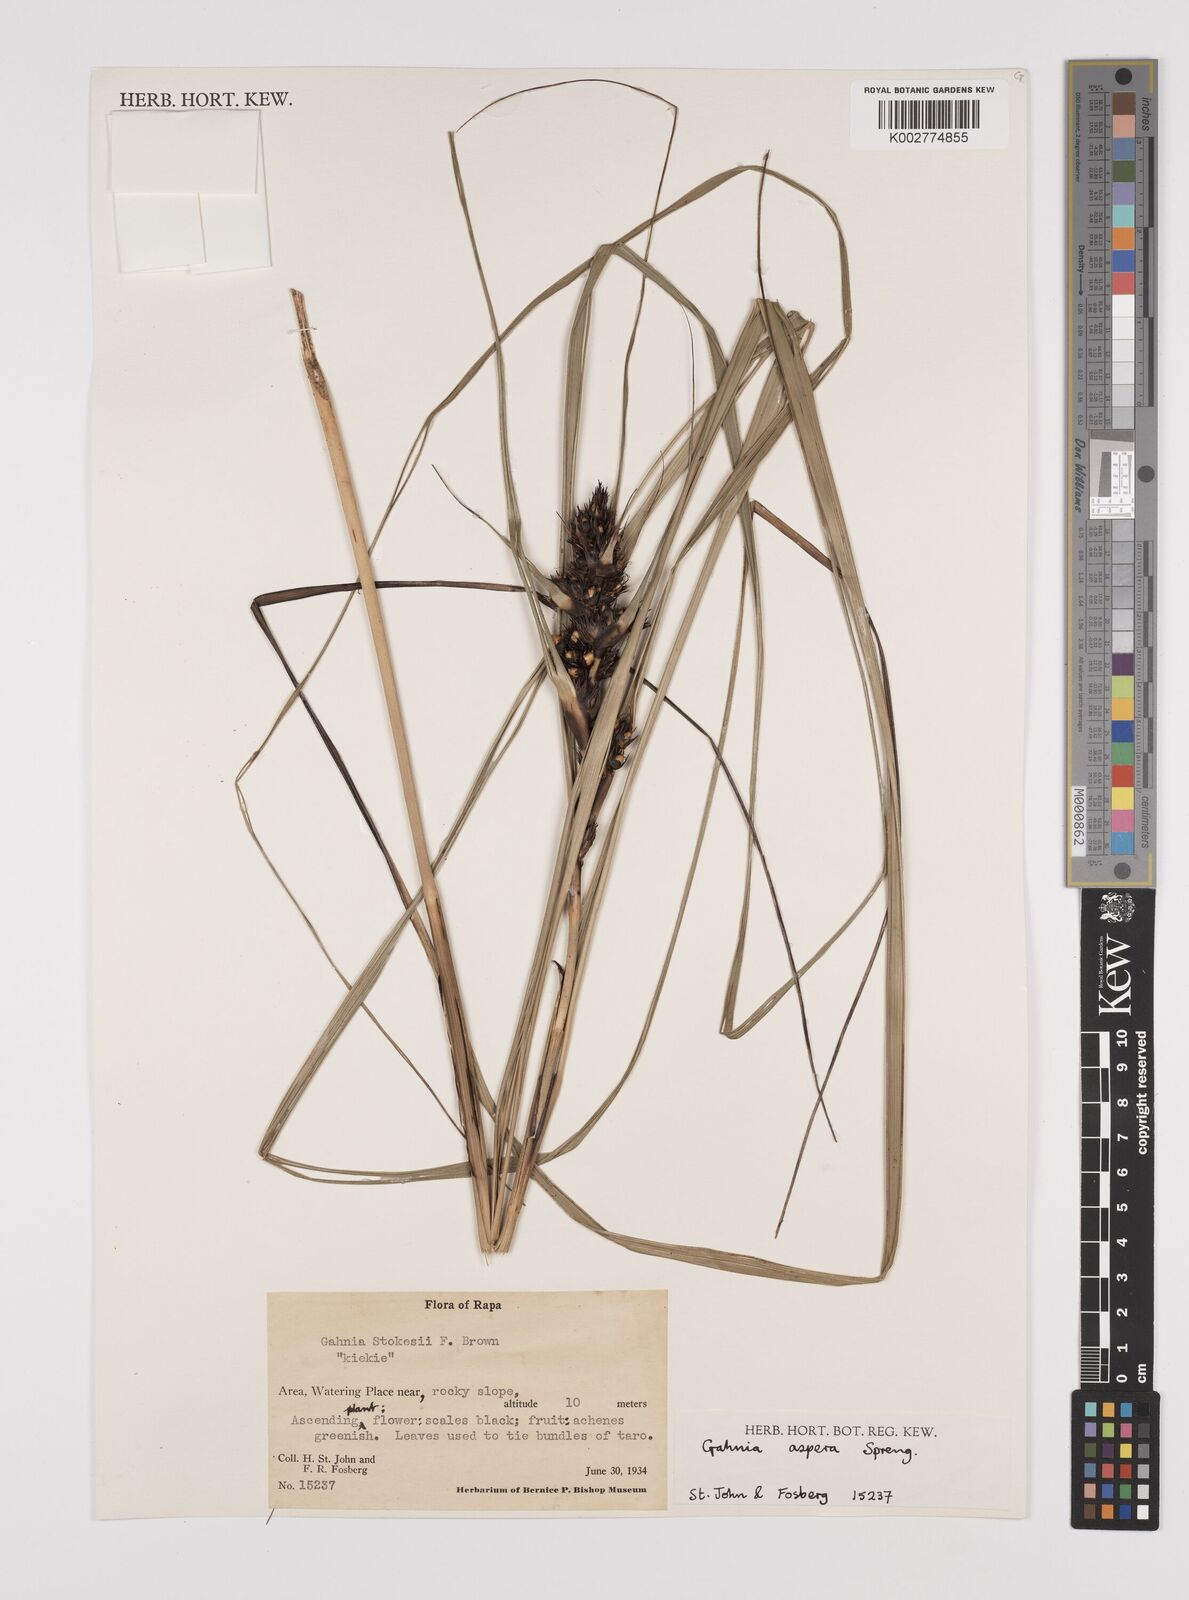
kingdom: Plantae
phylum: Tracheophyta
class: Liliopsida
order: Poales
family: Cyperaceae
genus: Gahnia
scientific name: Gahnia aspera
